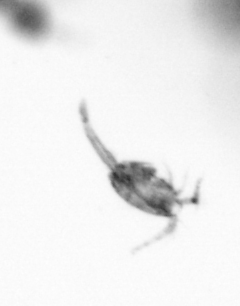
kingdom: Animalia
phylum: Arthropoda
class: Copepoda
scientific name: Copepoda
